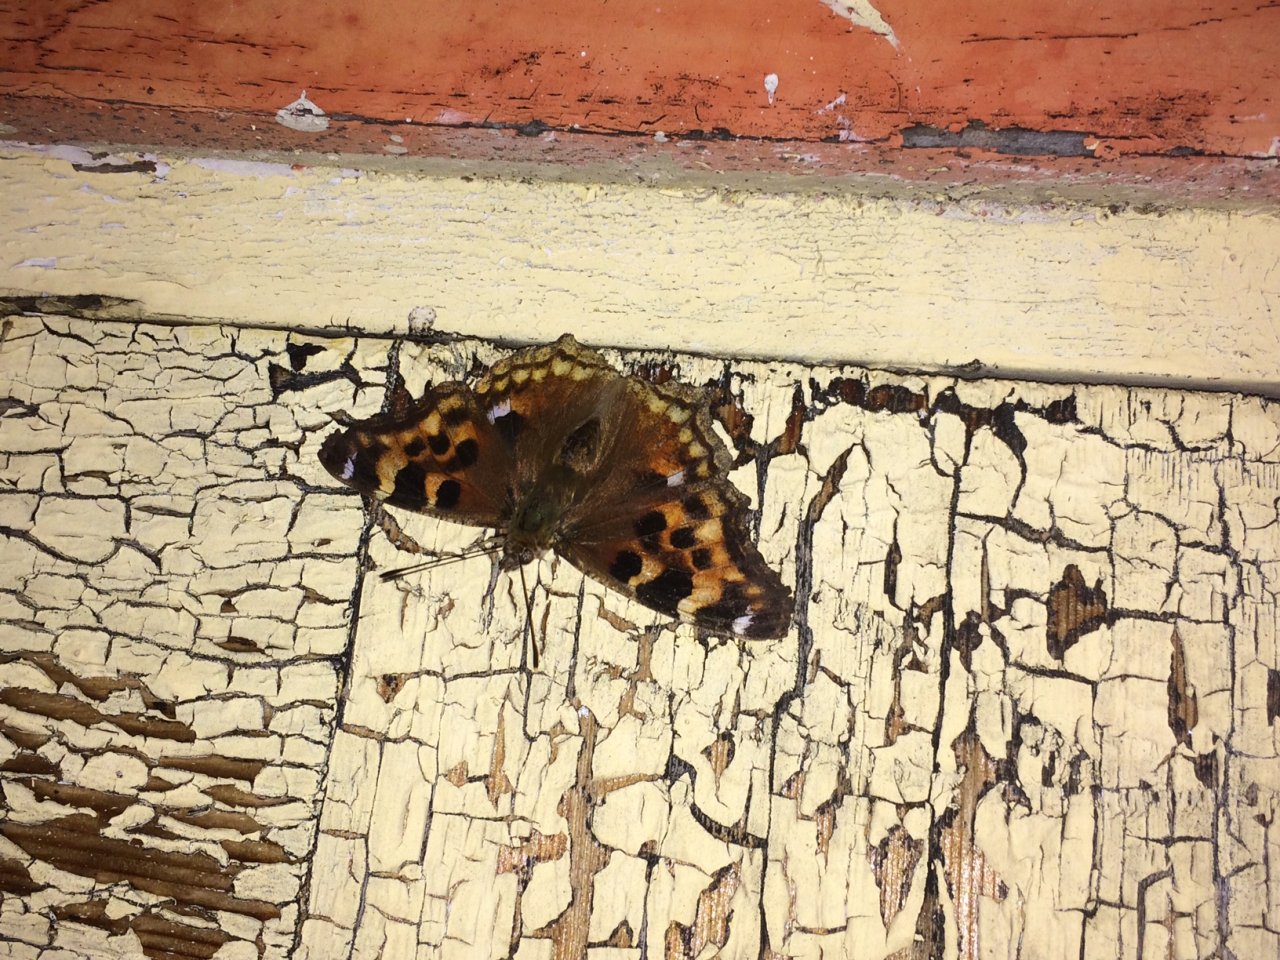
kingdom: Animalia
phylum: Arthropoda
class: Insecta
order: Lepidoptera
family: Nymphalidae
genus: Polygonia
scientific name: Polygonia vaualbum
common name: Compton Tortoiseshell
